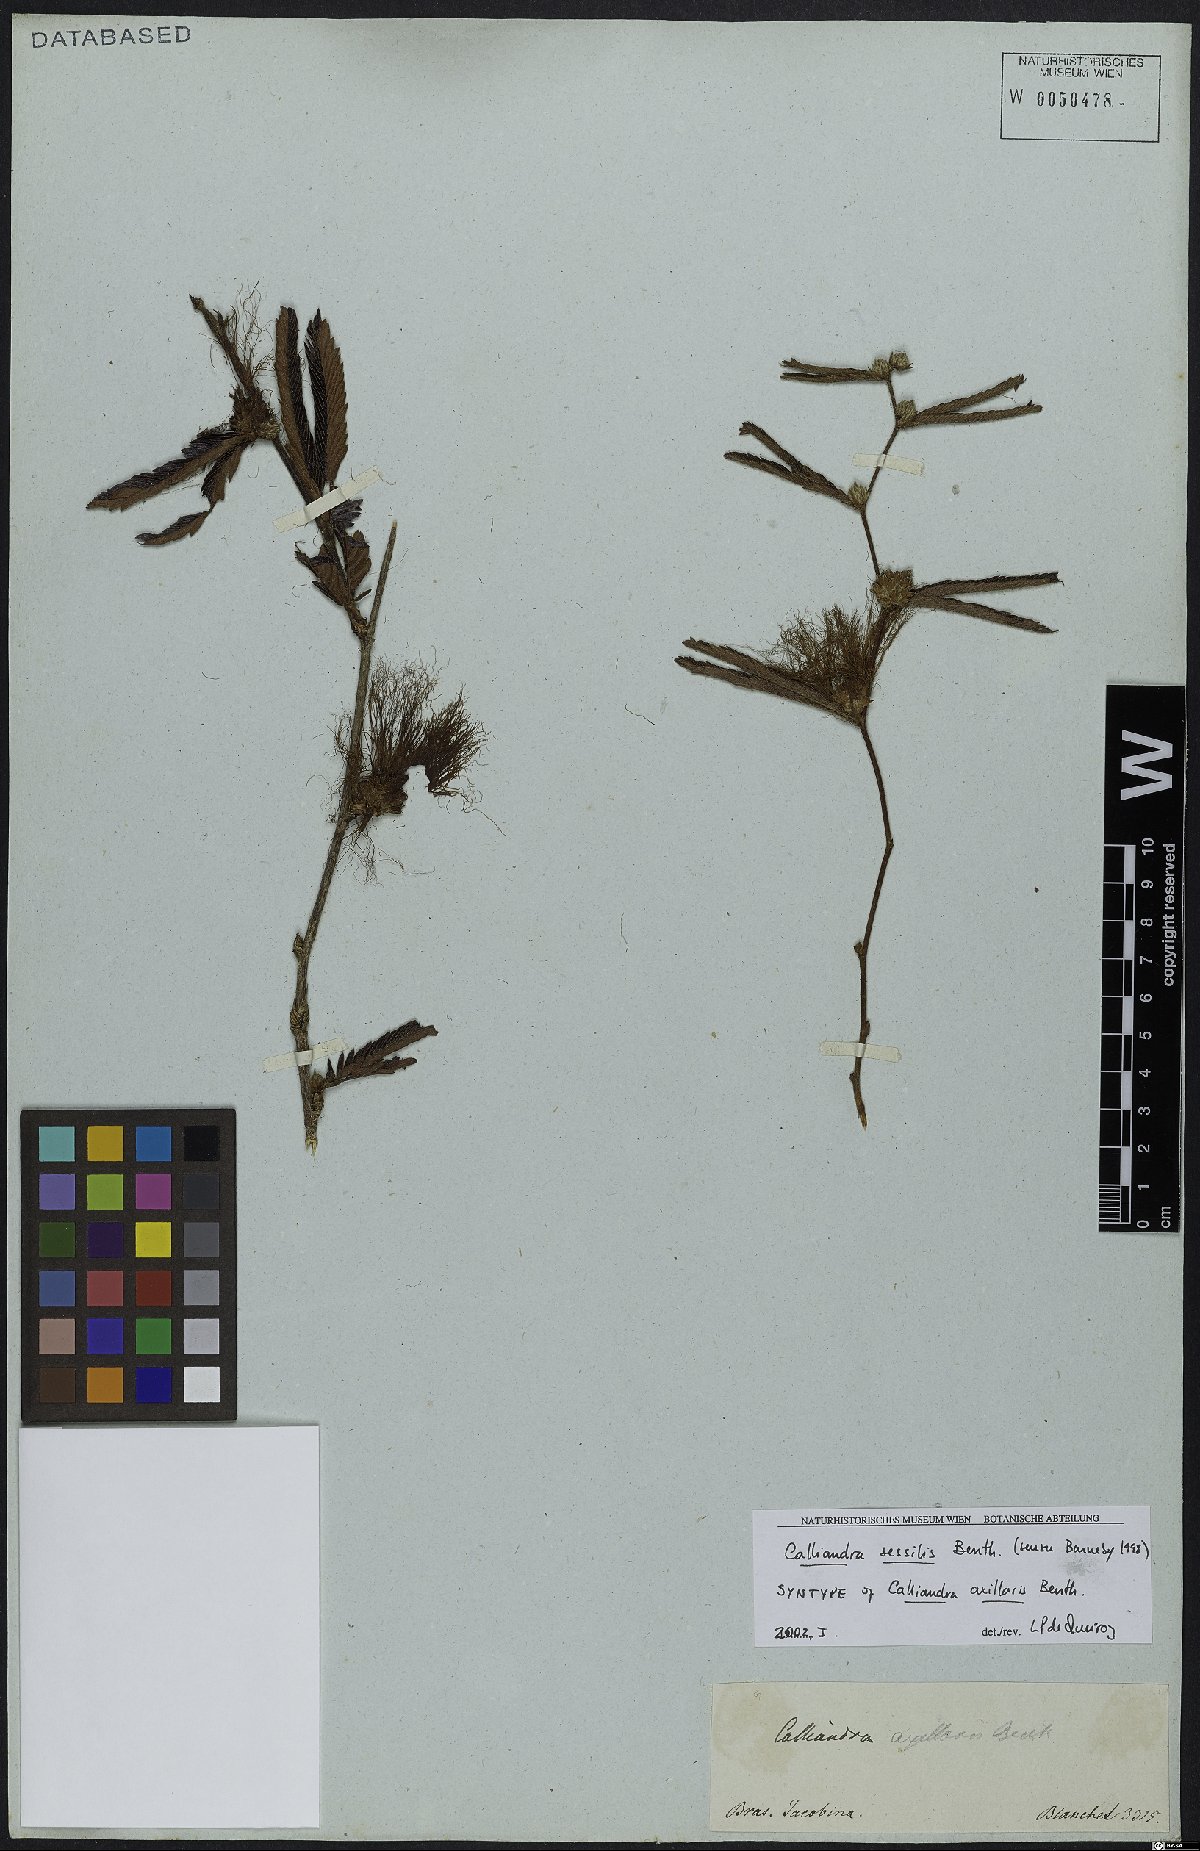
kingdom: Plantae
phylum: Tracheophyta
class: Magnoliopsida
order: Fabales
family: Fabaceae
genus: Calliandra
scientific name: Calliandra sessilis
